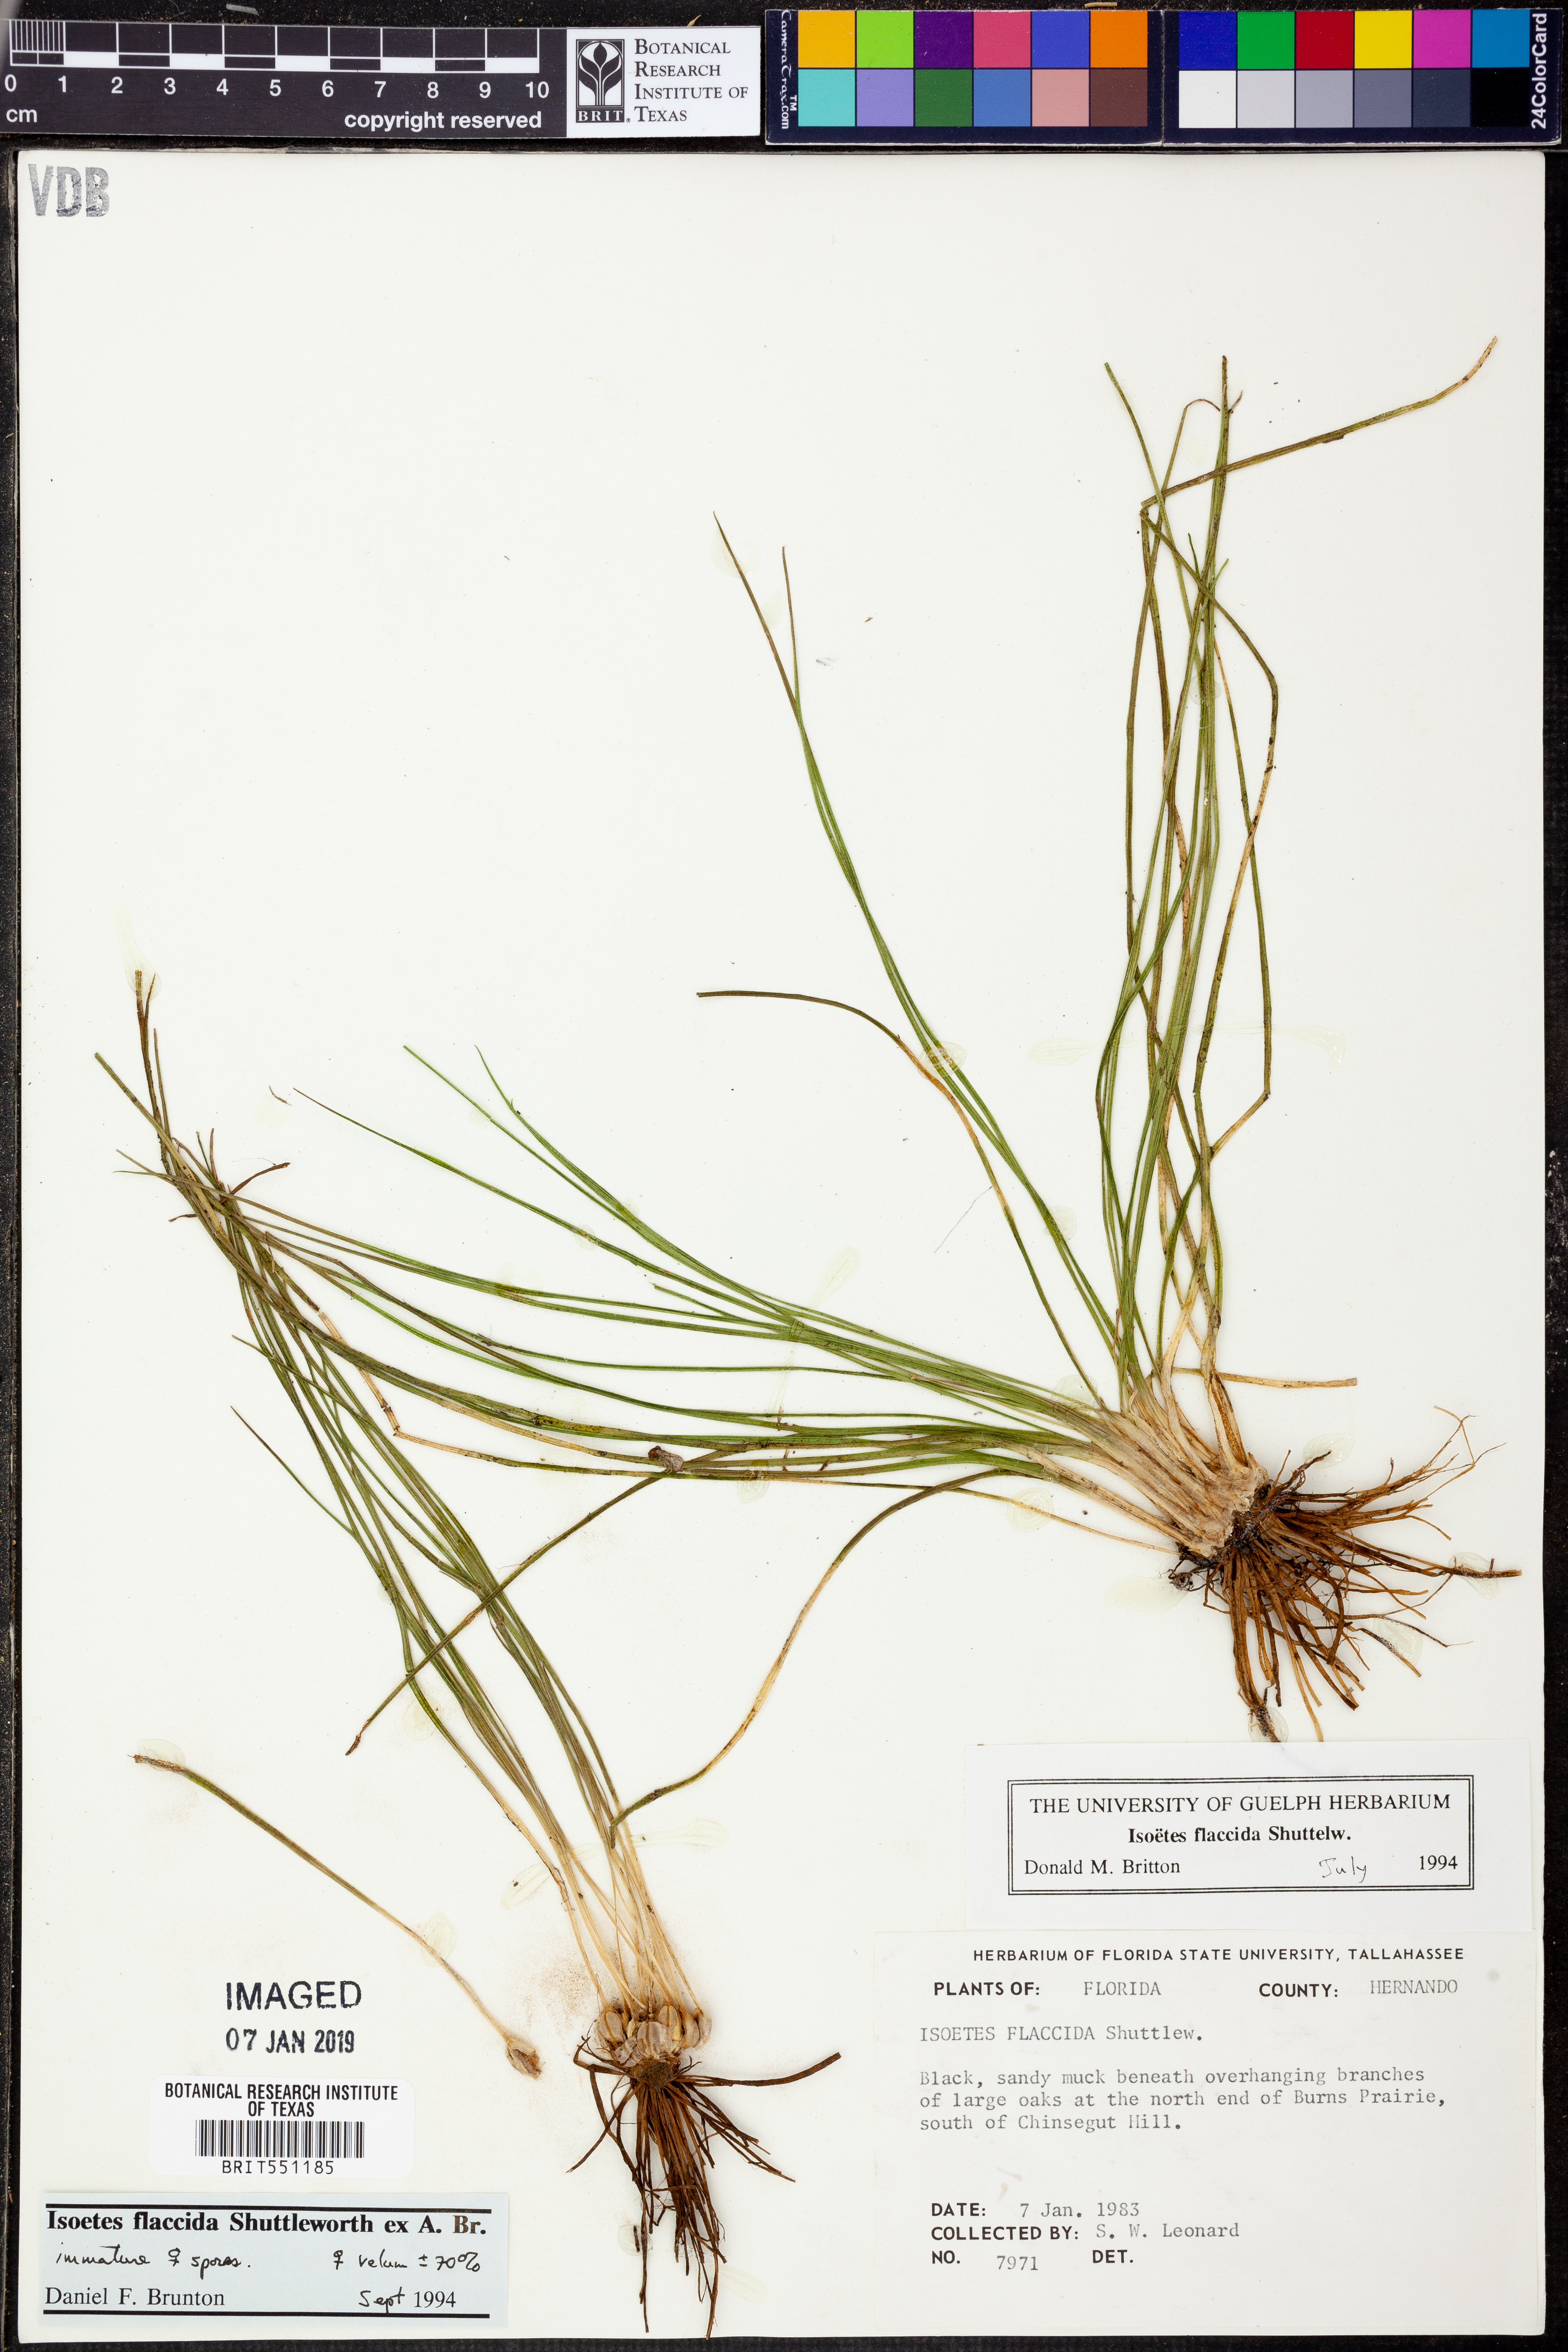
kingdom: Plantae
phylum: Tracheophyta
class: Lycopodiopsida
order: Isoetales
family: Isoetaceae
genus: Isoetes
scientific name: Isoetes flaccida
